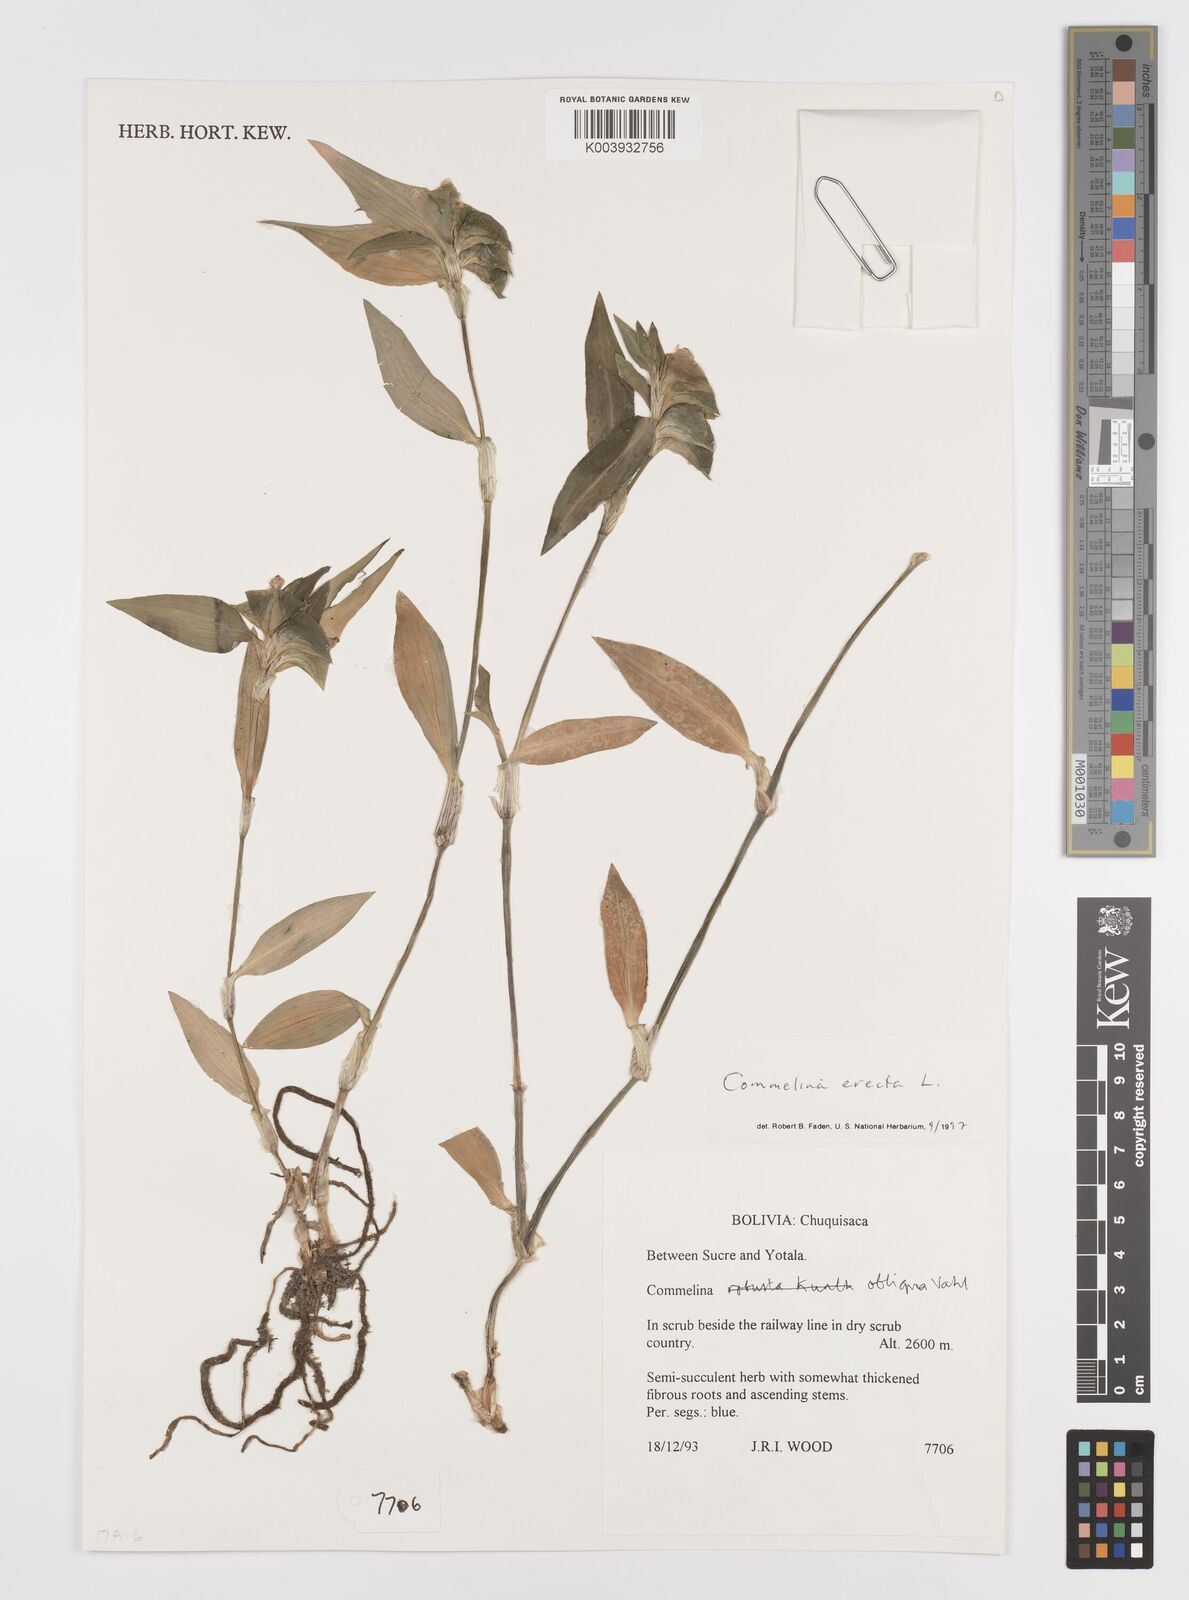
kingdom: Plantae
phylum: Tracheophyta
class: Liliopsida
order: Commelinales
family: Commelinaceae
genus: Commelina
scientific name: Commelina erecta
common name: Blousel blommetjie
